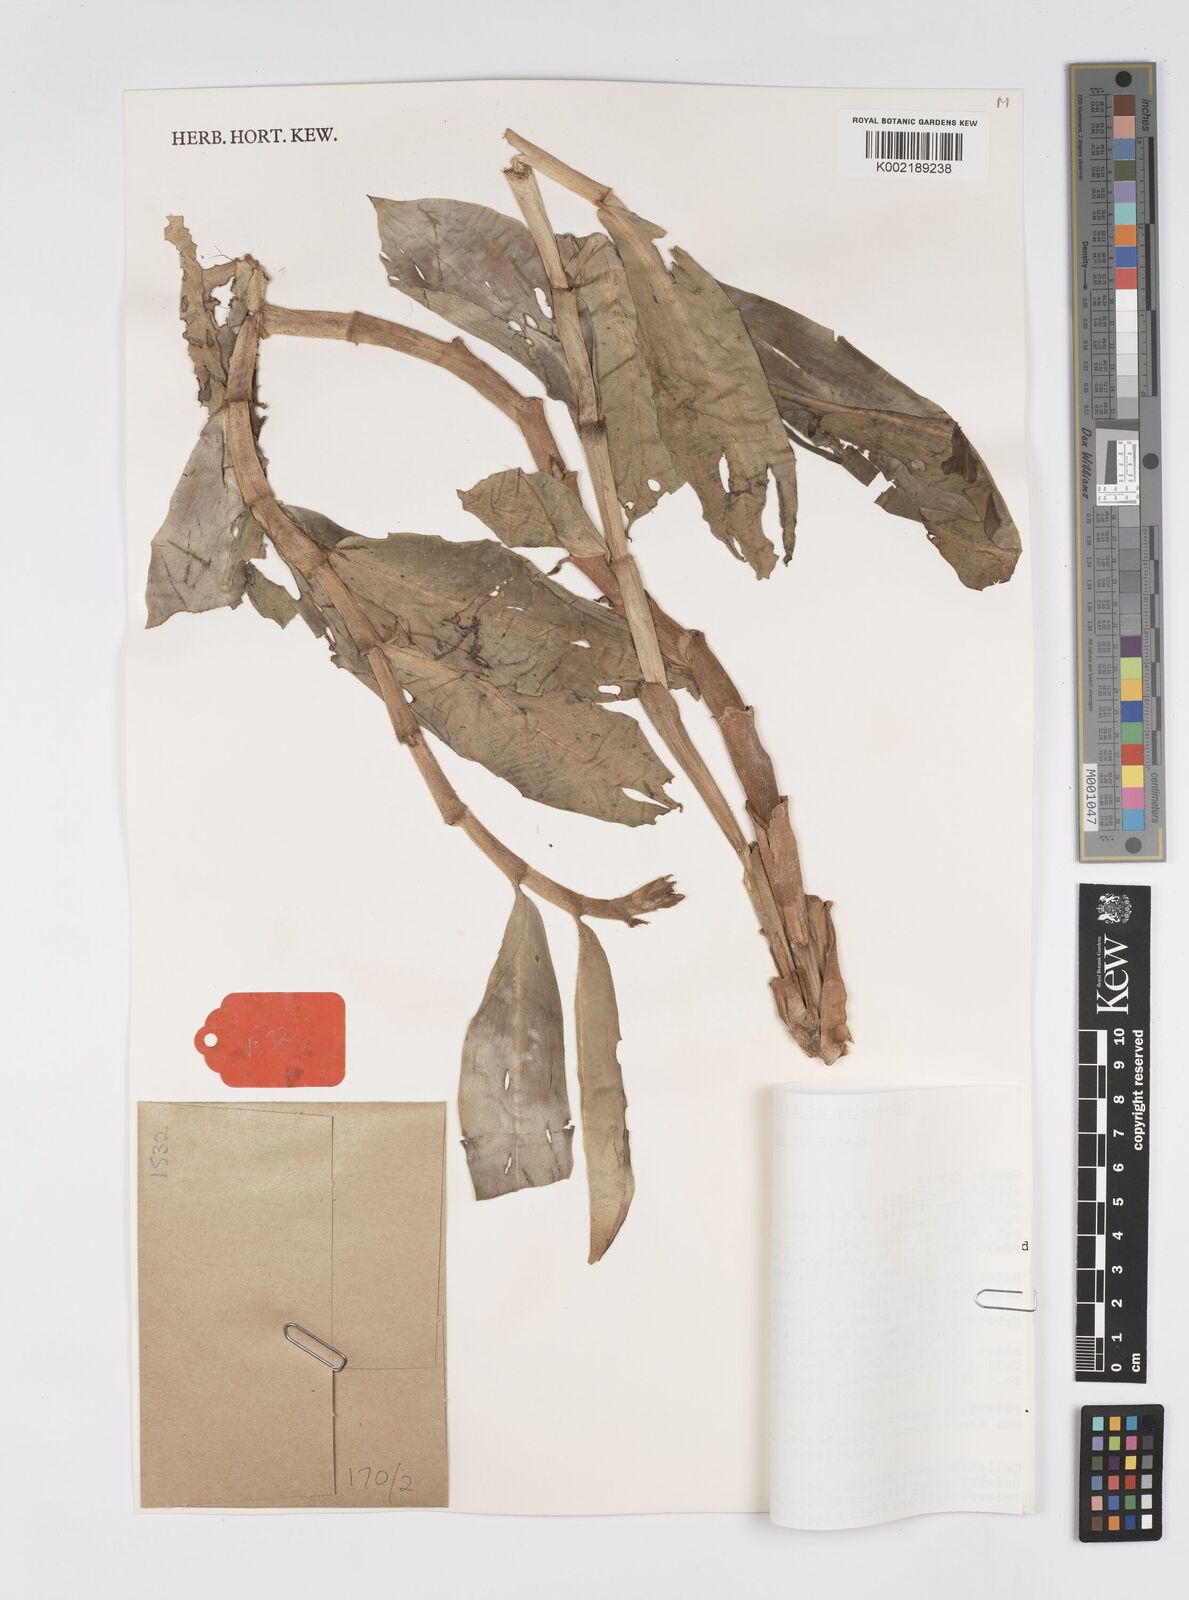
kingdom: Plantae
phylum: Tracheophyta
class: Liliopsida
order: Zingiberales
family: Costaceae
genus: Hellenia
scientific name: Hellenia speciosa
